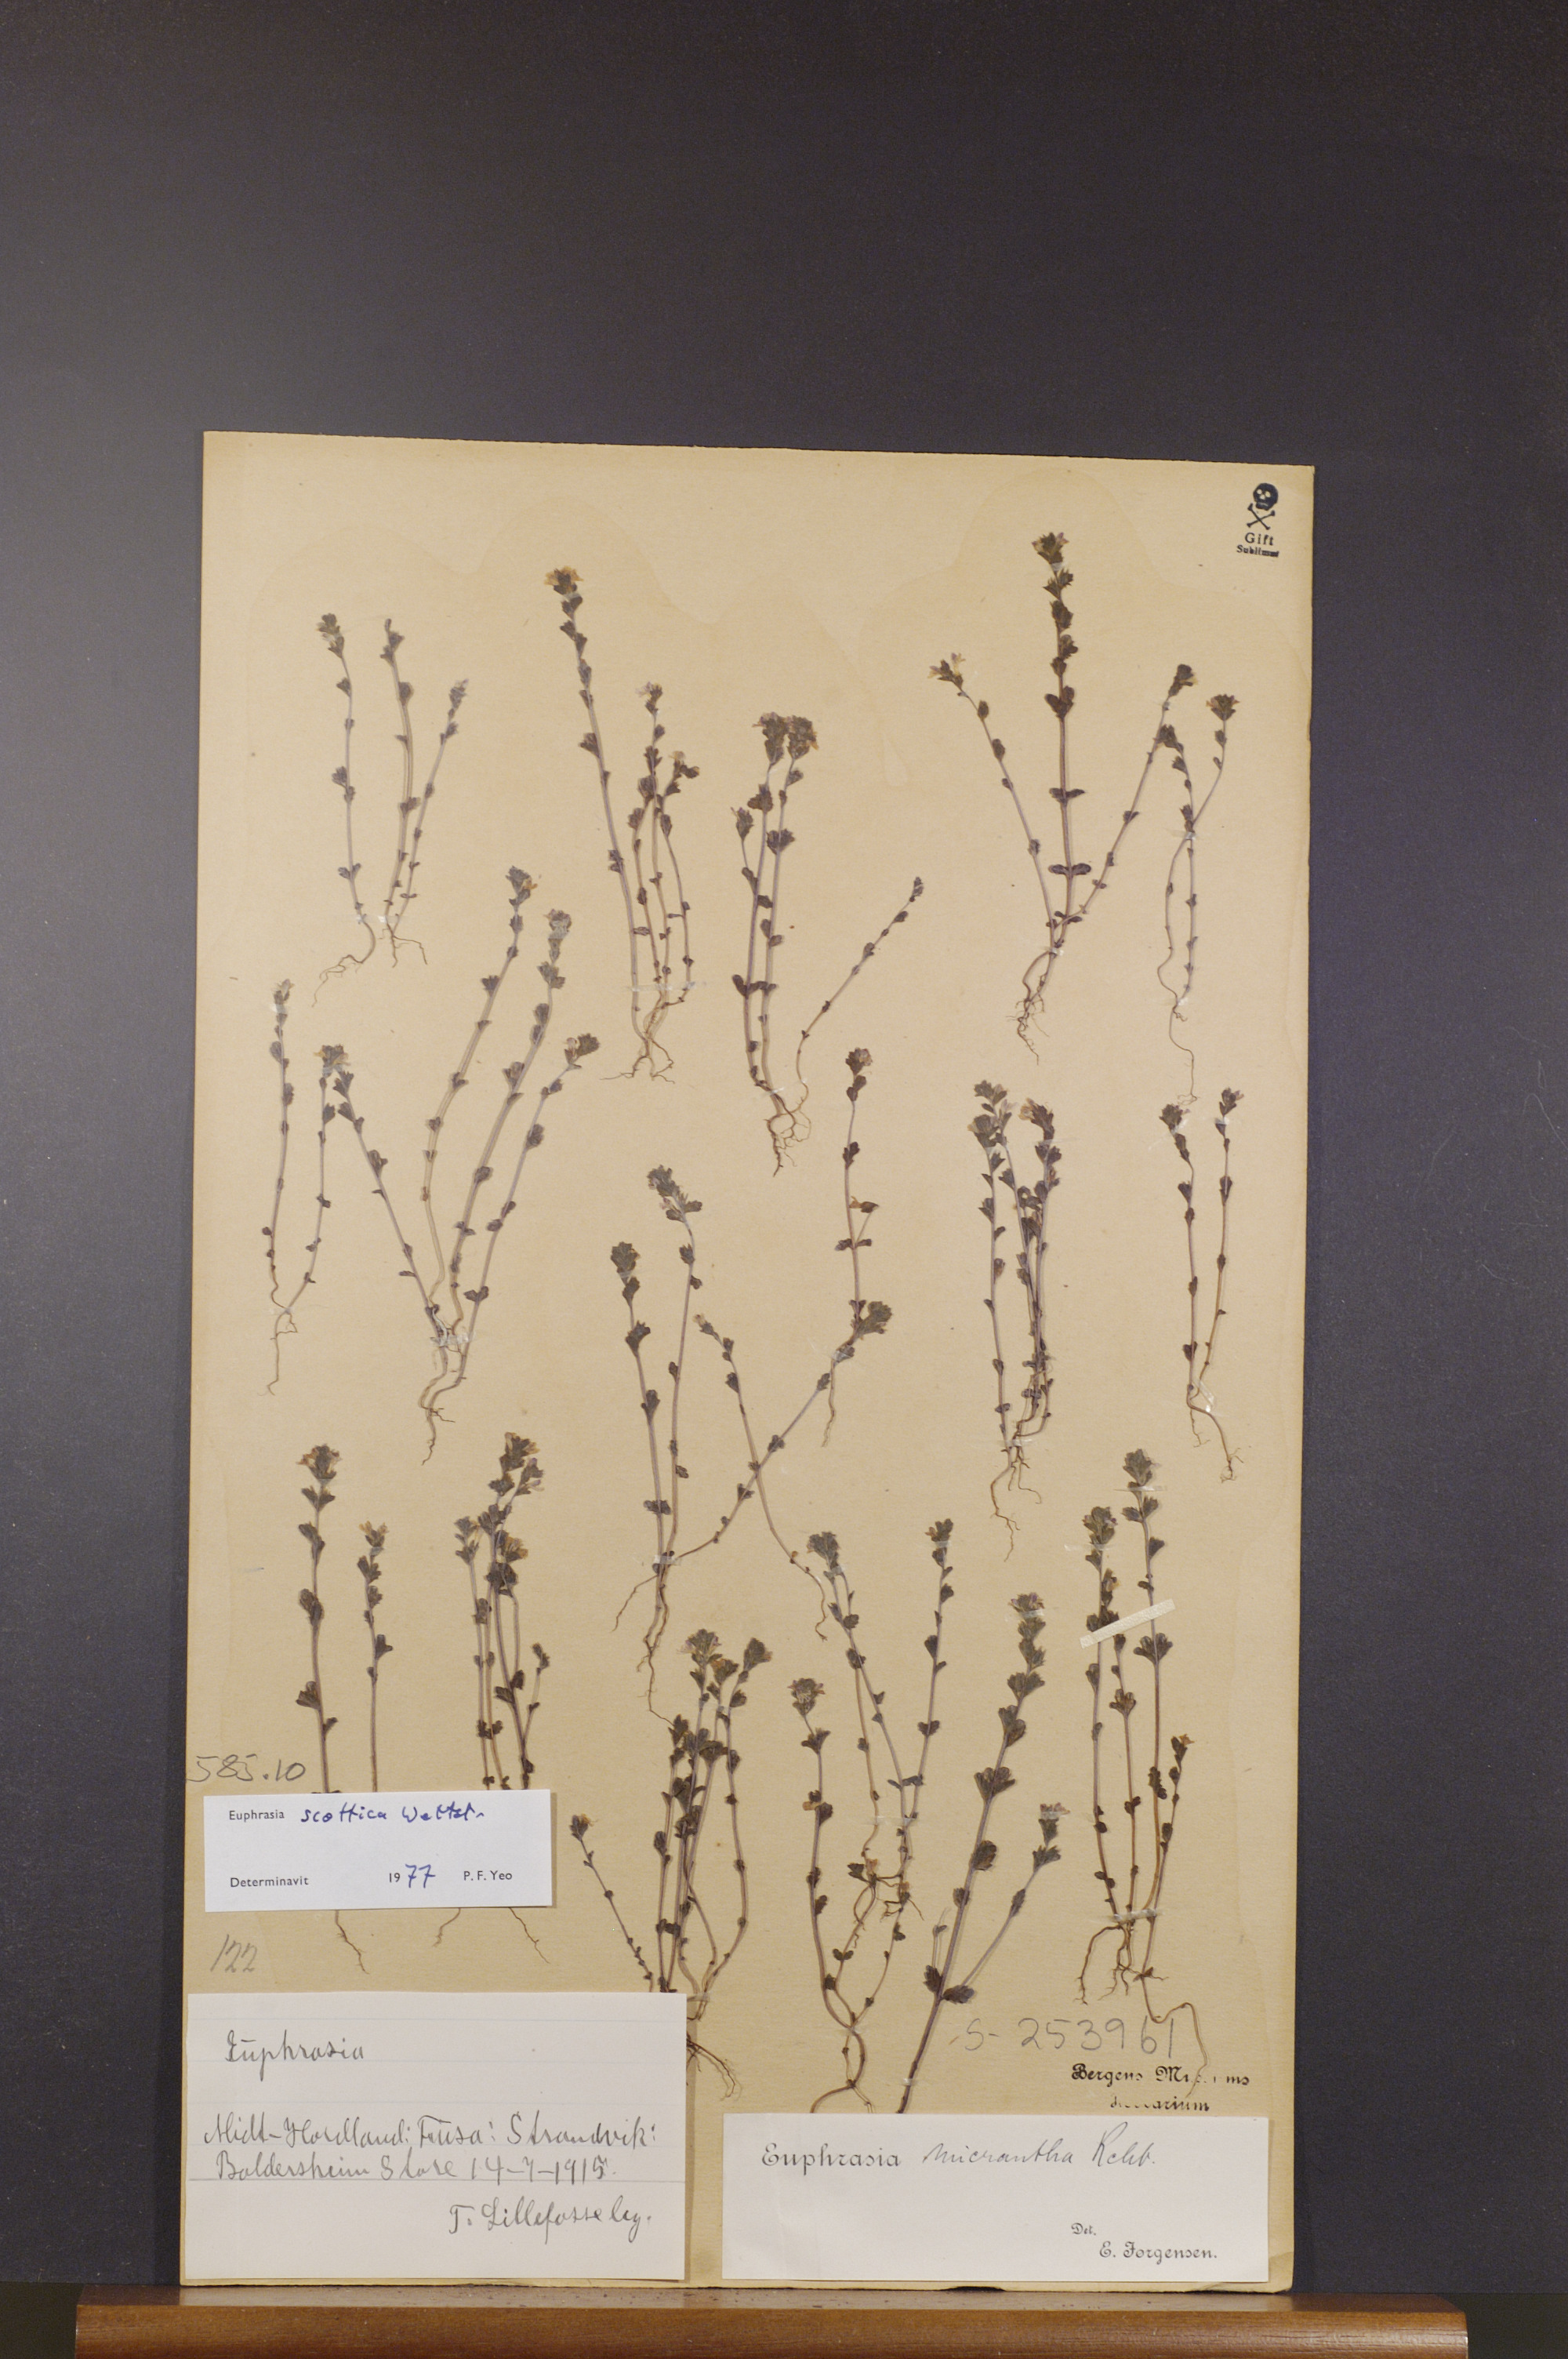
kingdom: Plantae
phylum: Tracheophyta
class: Magnoliopsida
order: Lamiales
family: Orobanchaceae
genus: Euphrasia
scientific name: Euphrasia scottica
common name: Slender scottish eyebright
